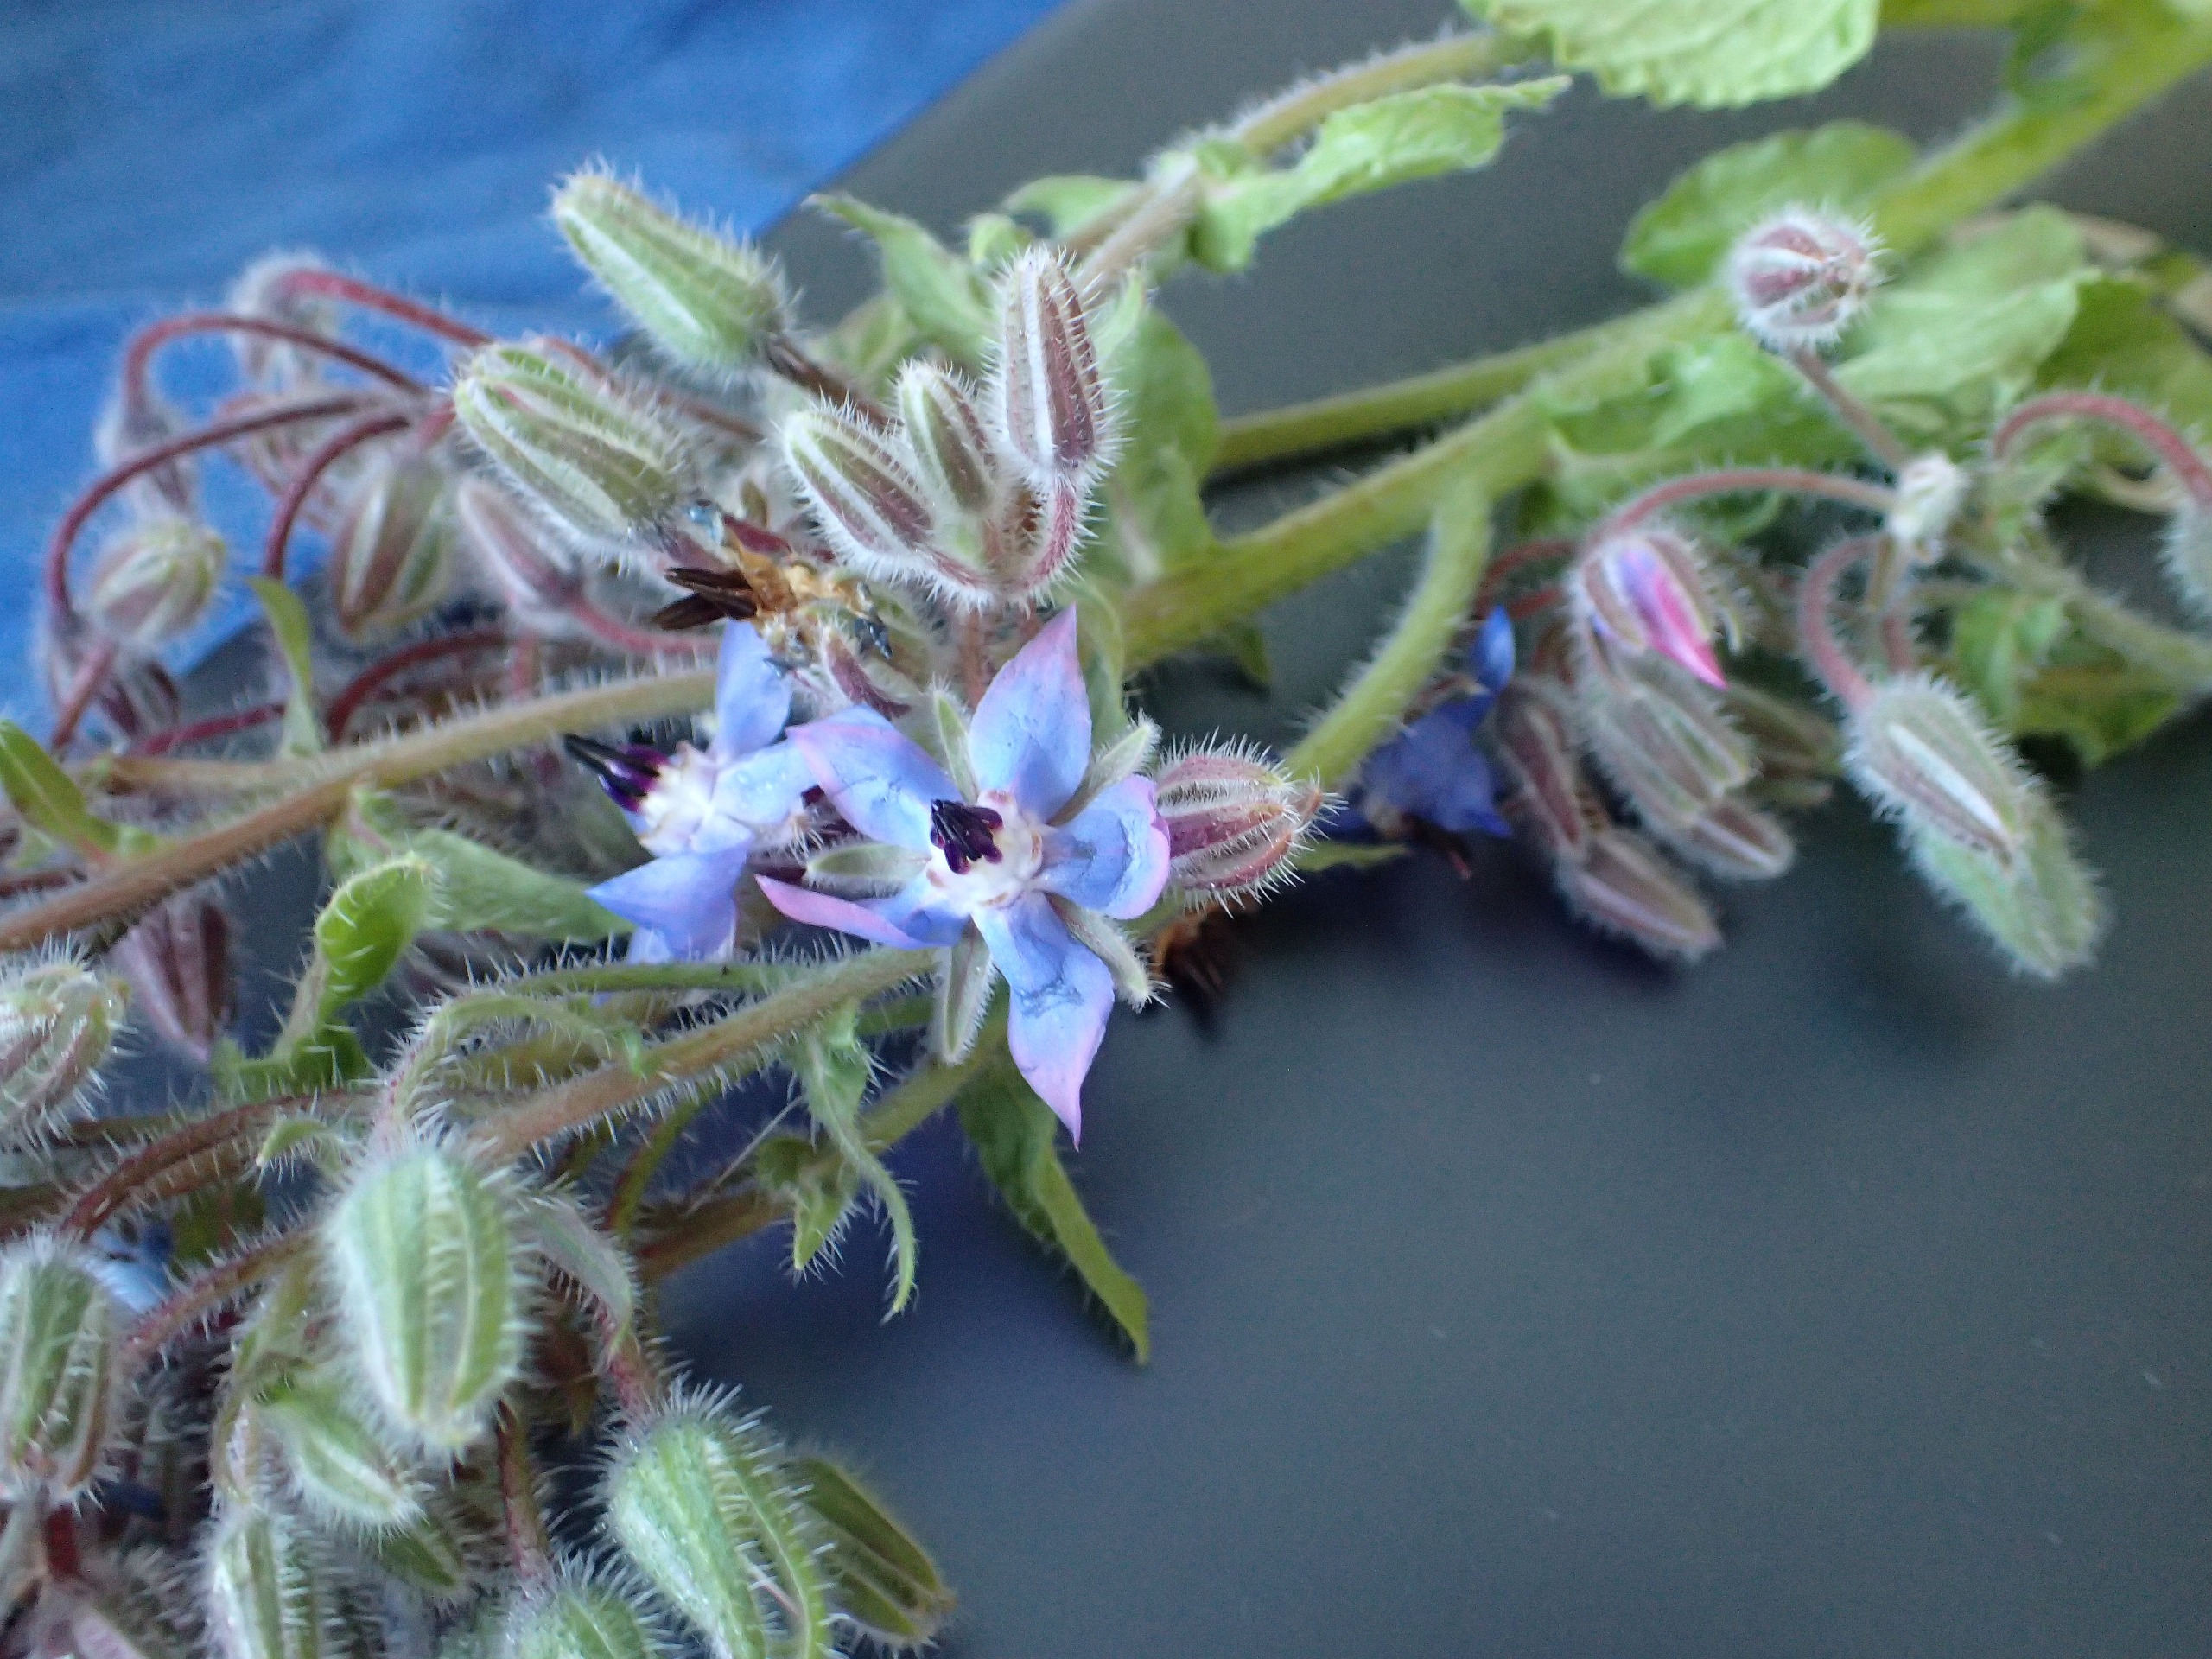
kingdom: Plantae
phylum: Tracheophyta
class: Magnoliopsida
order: Boraginales
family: Boraginaceae
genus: Borago
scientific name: Borago officinalis
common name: Hjulkrone
